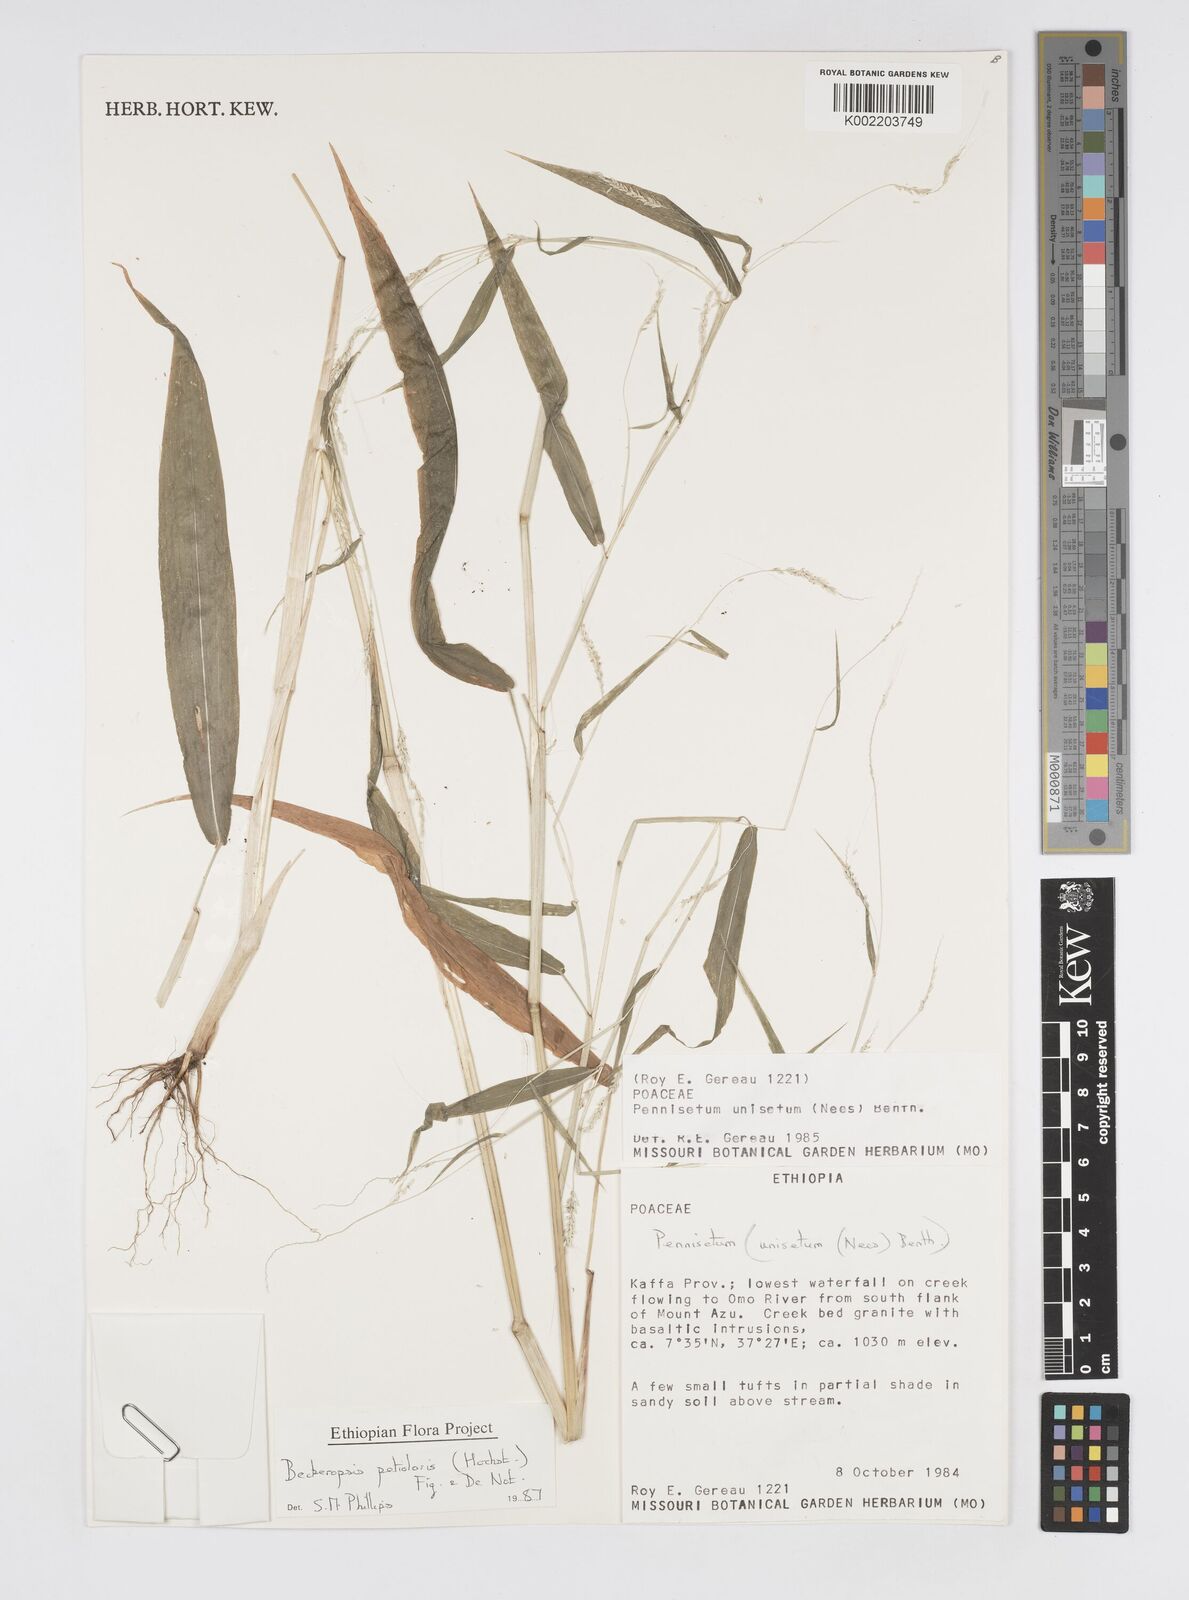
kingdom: Plantae
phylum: Tracheophyta
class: Liliopsida
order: Poales
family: Poaceae
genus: Cenchrus
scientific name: Cenchrus petiolaris
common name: Grass
